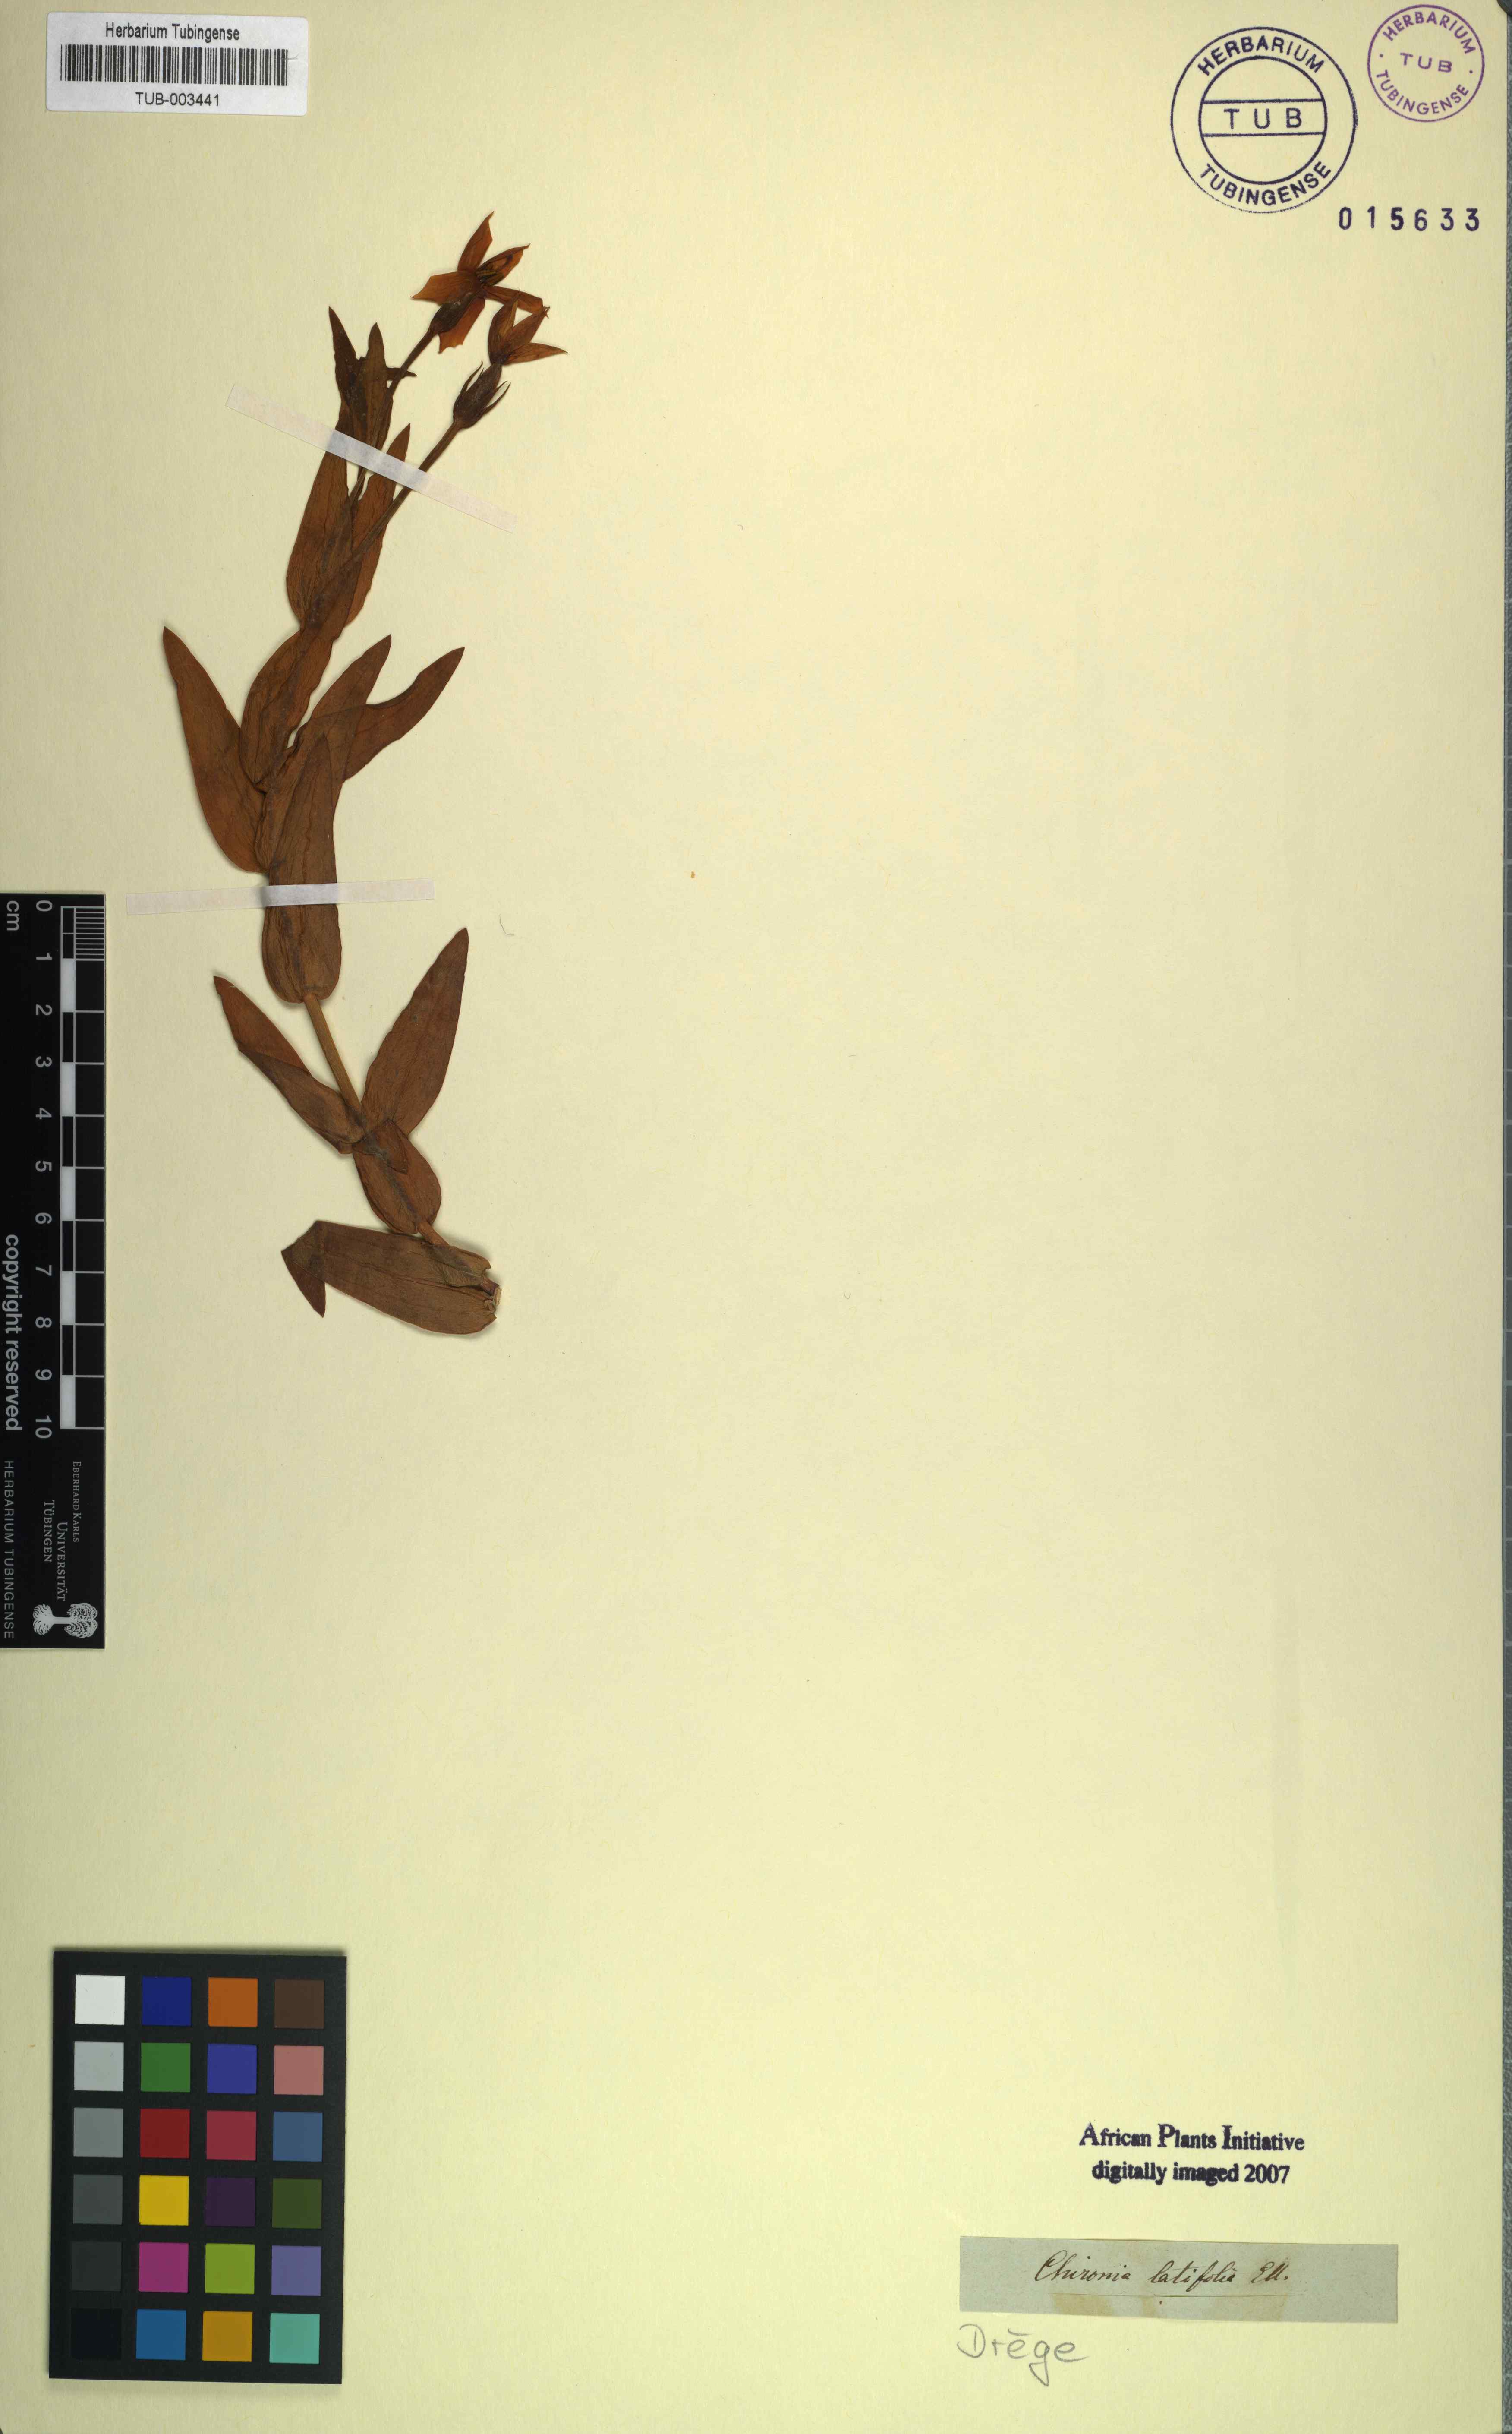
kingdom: Plantae
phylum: Tracheophyta
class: Magnoliopsida
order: Gentianales
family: Gentianaceae
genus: Chironia
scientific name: Chironia peduncularis
